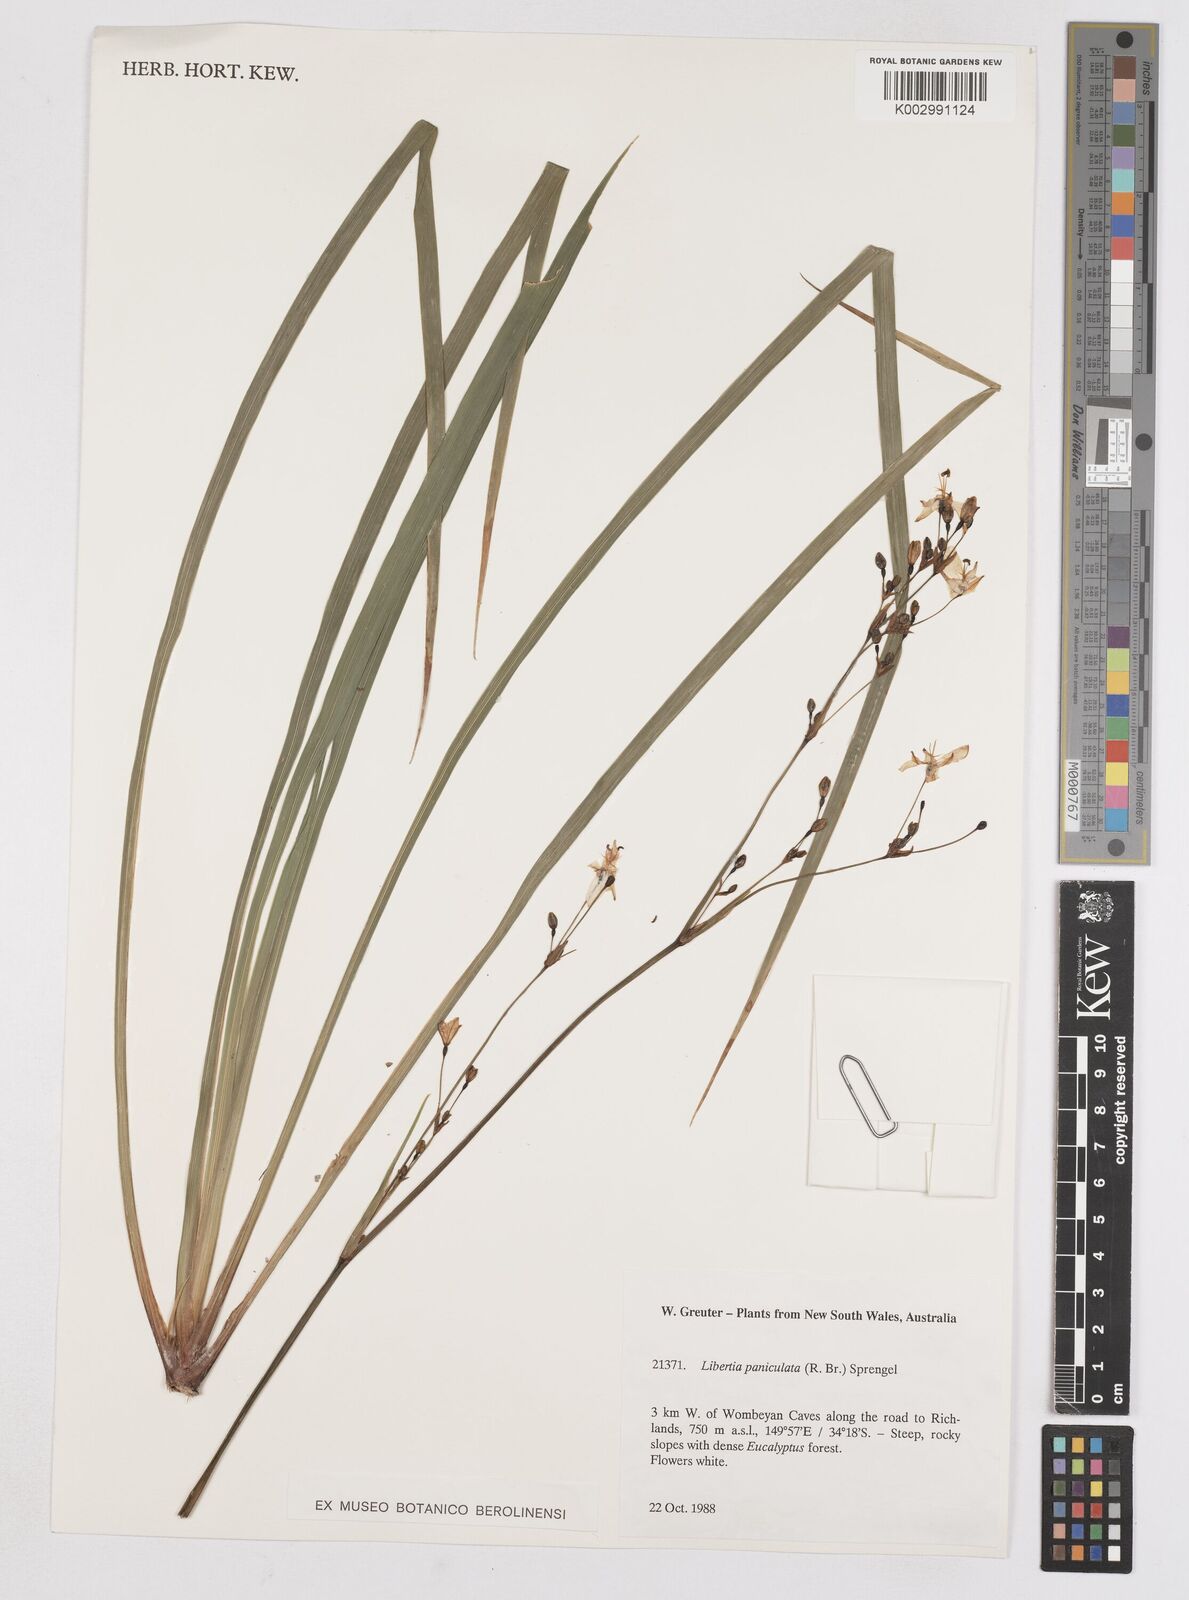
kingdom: Plantae
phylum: Tracheophyta
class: Liliopsida
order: Asparagales
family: Iridaceae
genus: Libertia
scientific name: Libertia paniculata
